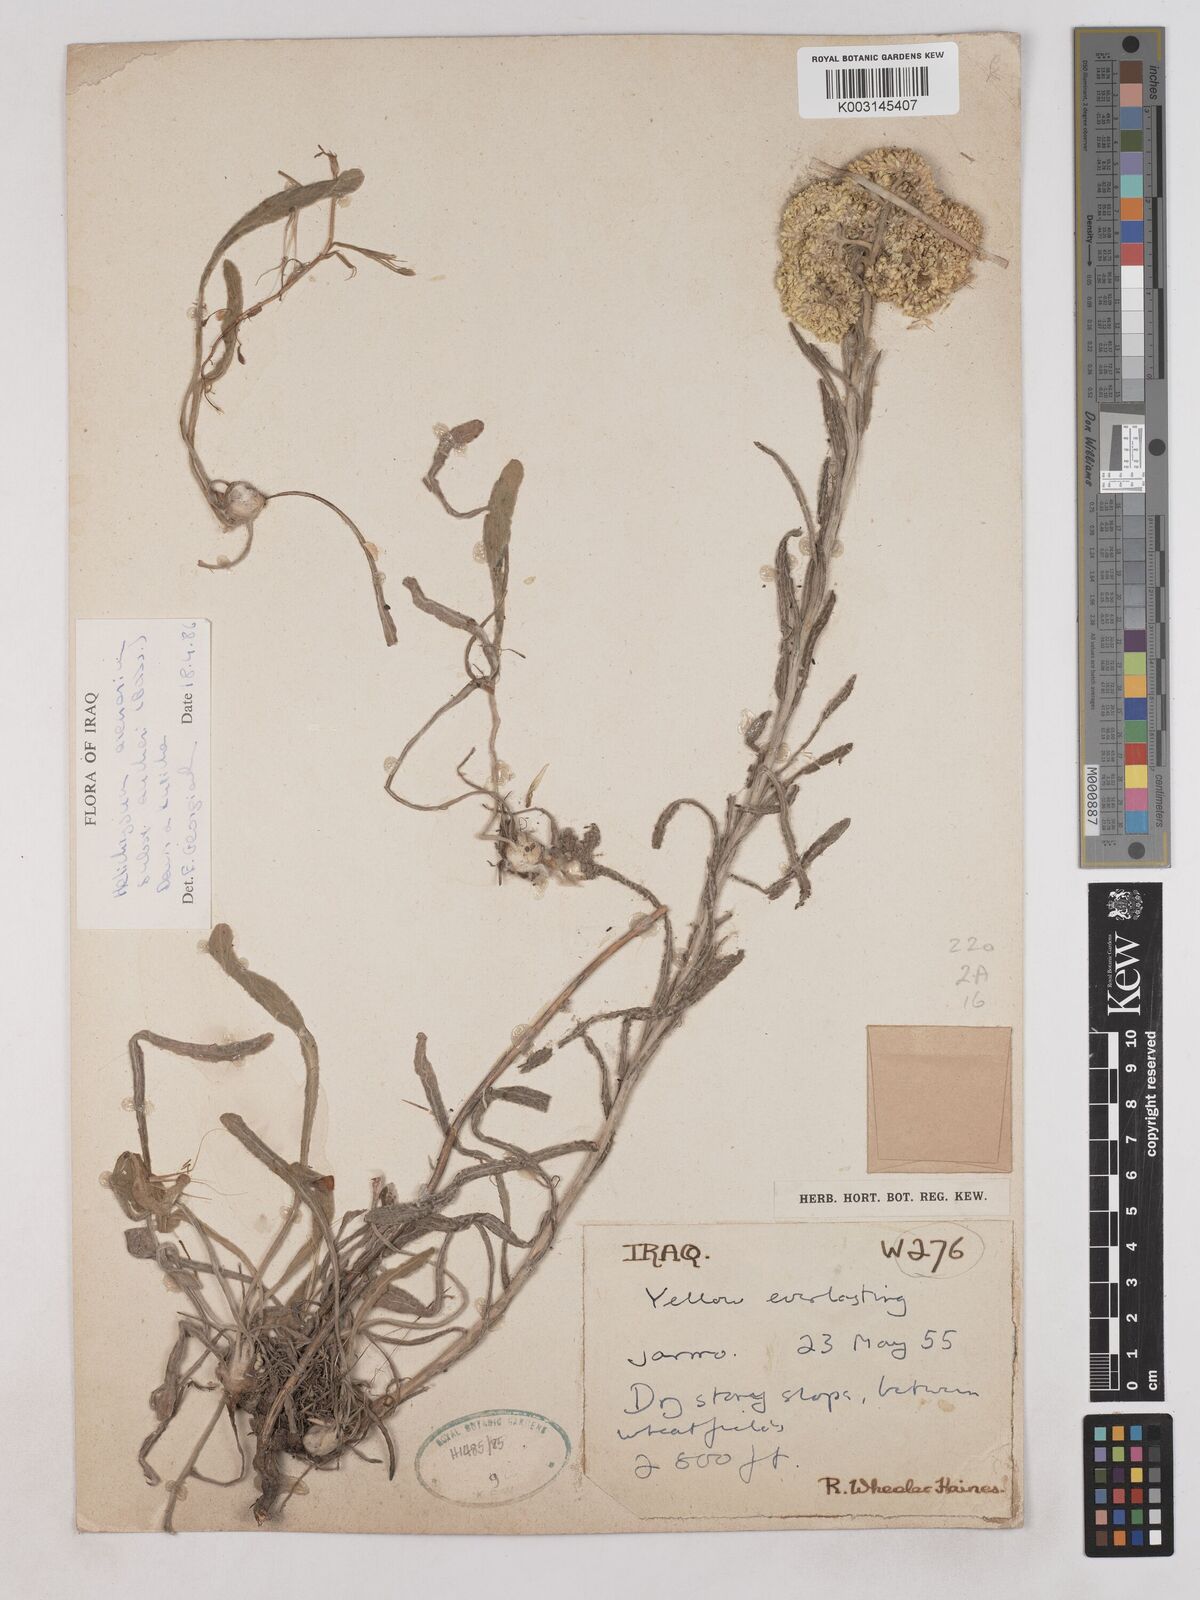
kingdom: Plantae
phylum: Tracheophyta
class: Magnoliopsida
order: Asterales
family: Asteraceae
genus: Helichrysum
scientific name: Helichrysum arenarium
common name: Strawflower
